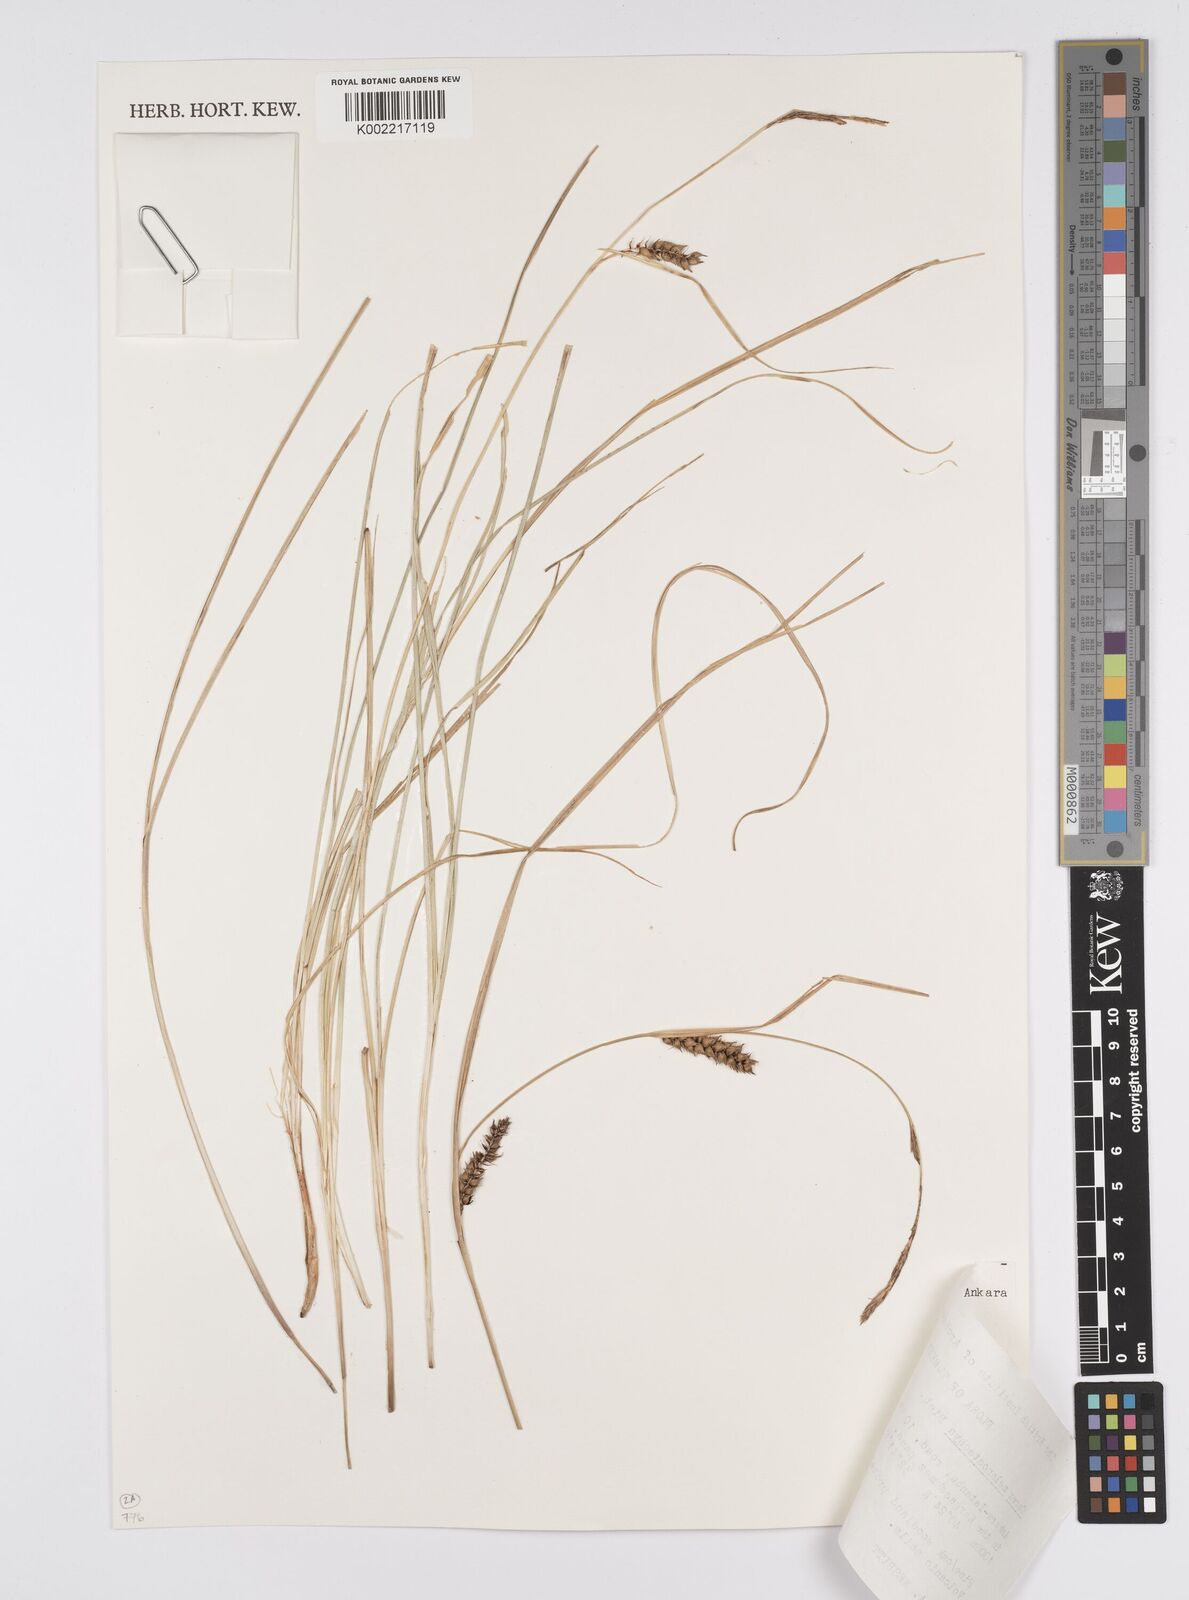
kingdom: Plantae
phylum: Tracheophyta
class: Liliopsida
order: Poales
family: Cyperaceae
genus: Carex
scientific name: Carex melanostachya
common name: Black-spiked sedge
